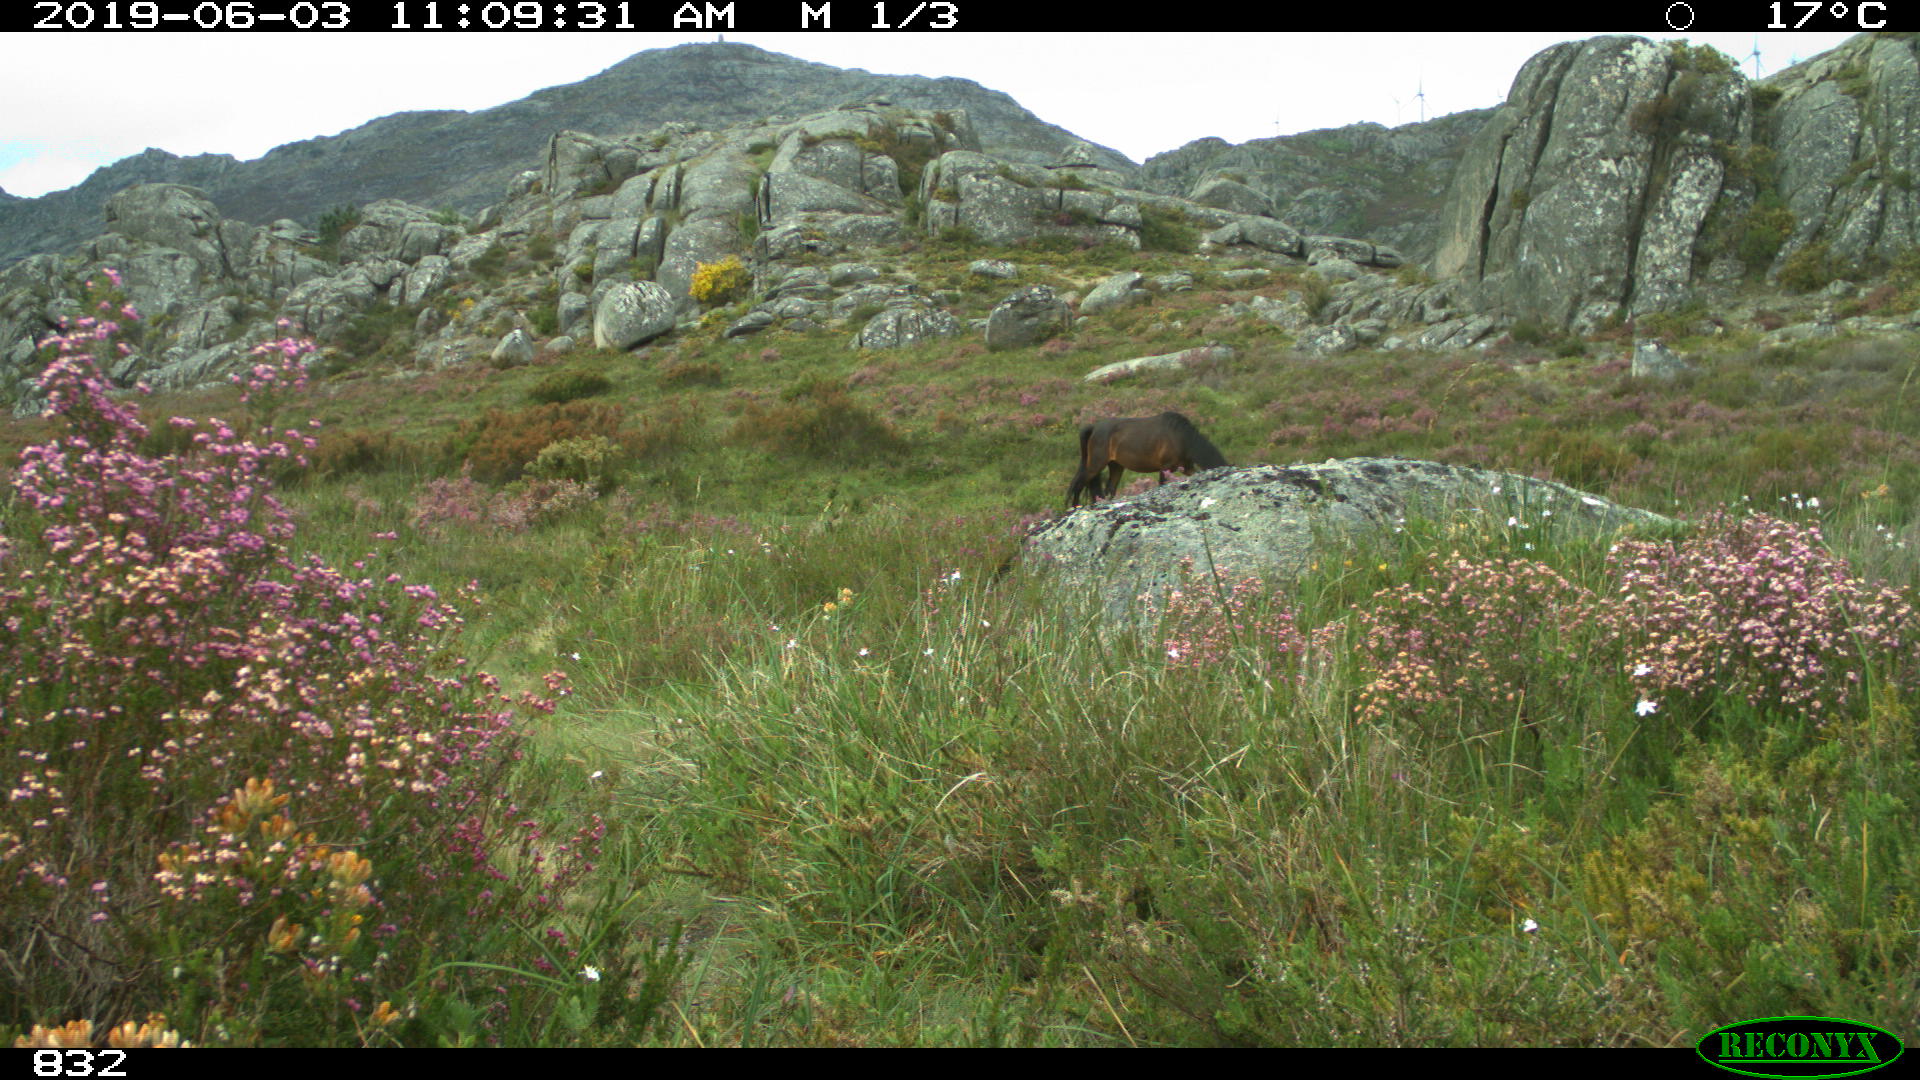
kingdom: Animalia
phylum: Chordata
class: Mammalia
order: Perissodactyla
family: Equidae
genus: Equus
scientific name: Equus caballus
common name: Horse
